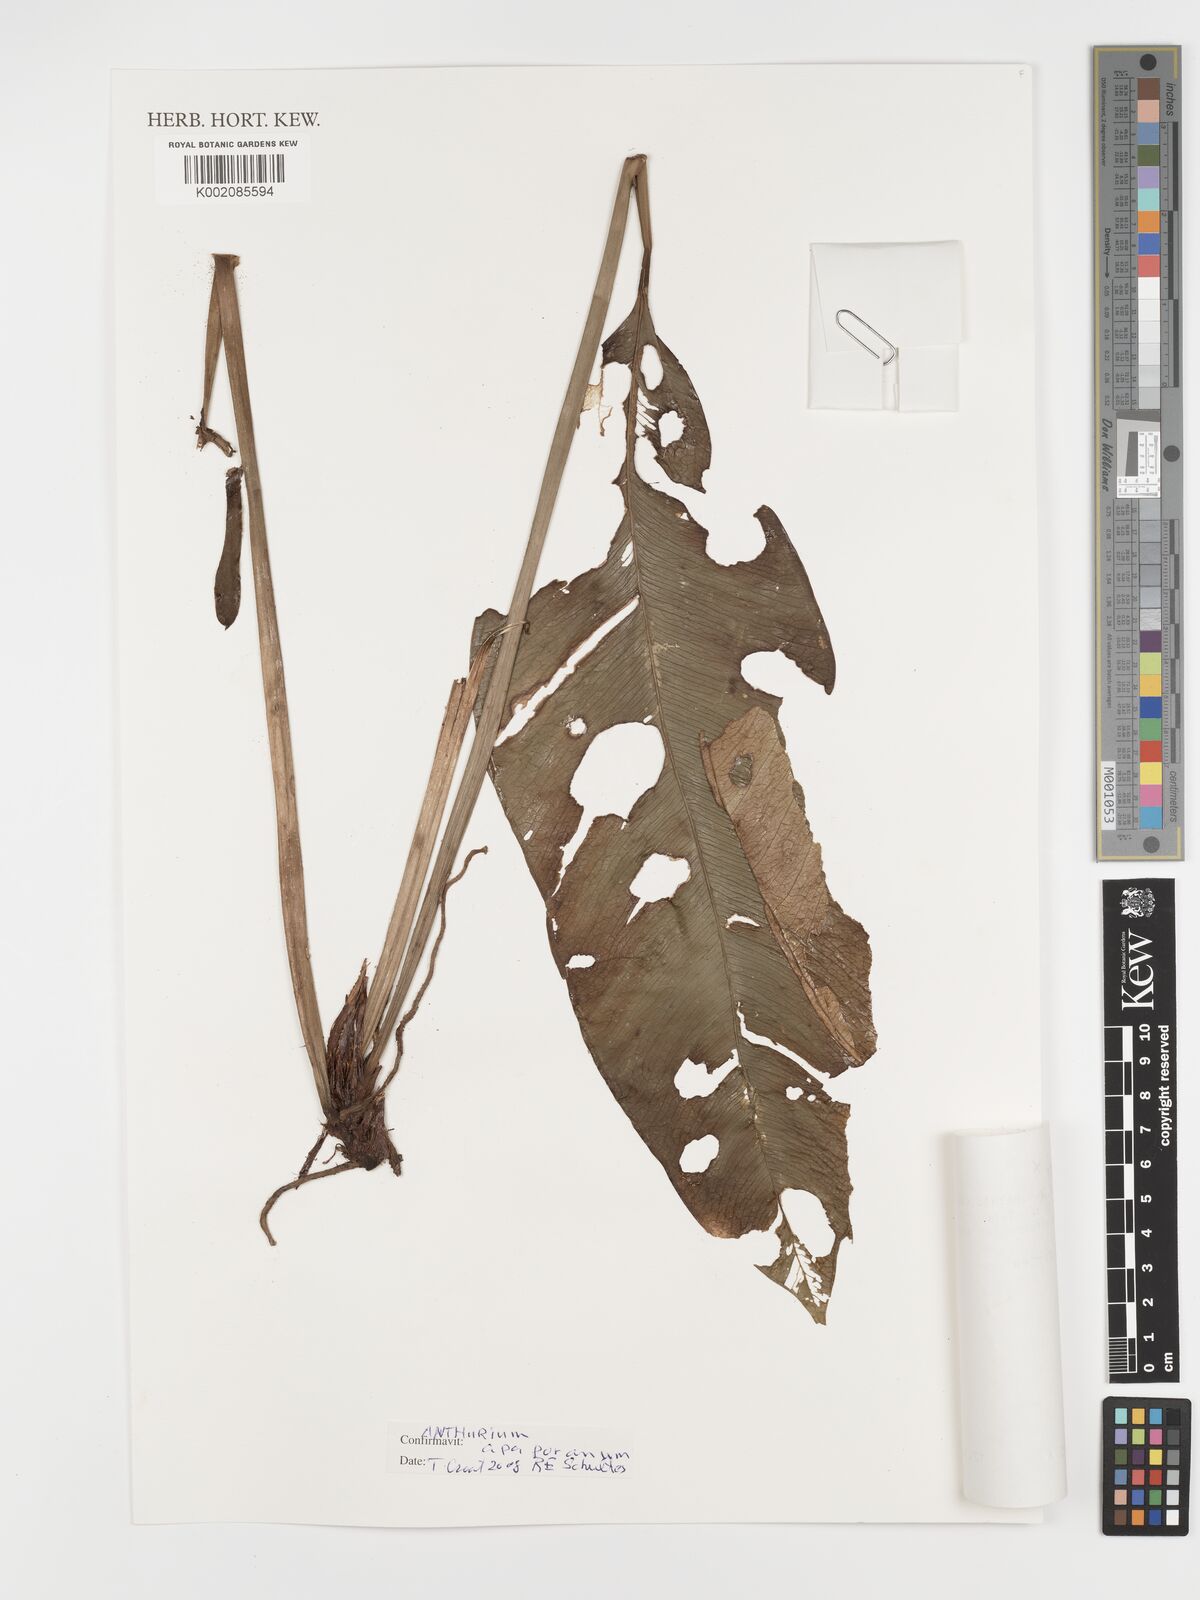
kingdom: Plantae
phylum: Tracheophyta
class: Liliopsida
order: Alismatales
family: Araceae
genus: Anthurium
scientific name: Anthurium apaporanum
